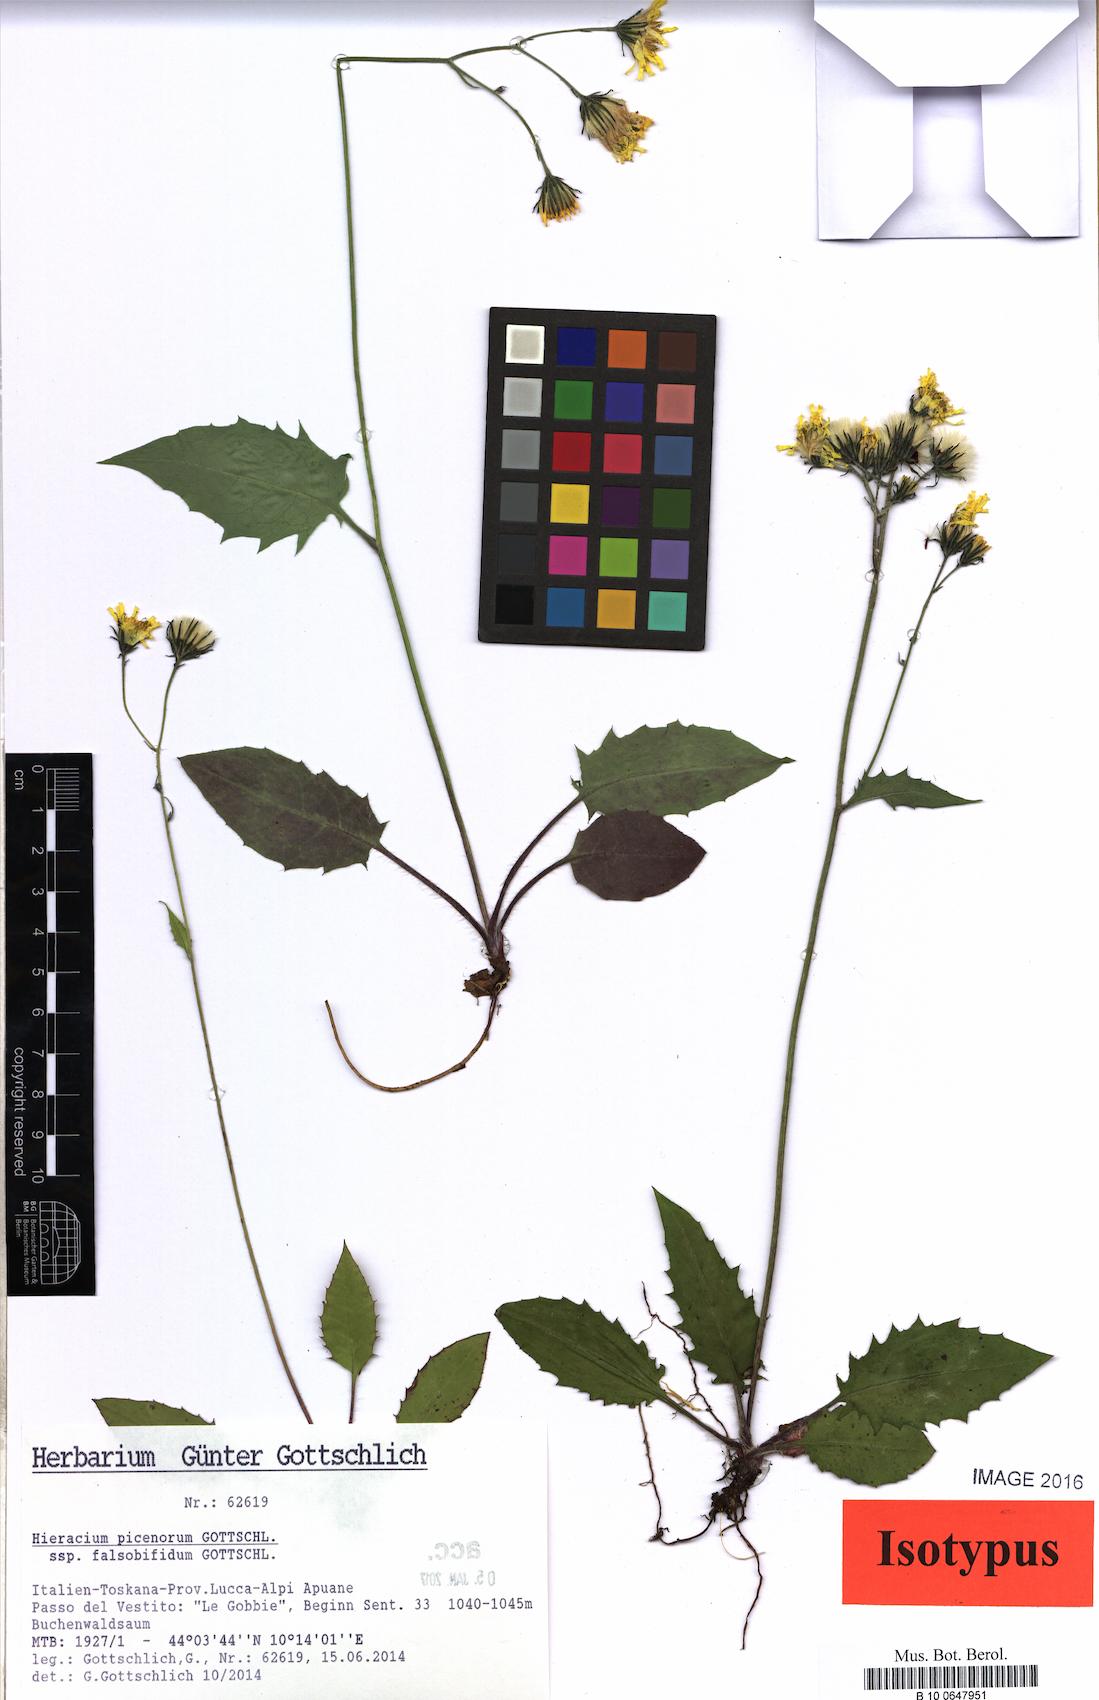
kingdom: Plantae
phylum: Tracheophyta
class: Magnoliopsida
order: Asterales
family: Asteraceae
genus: Hieracium
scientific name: Hieracium picenorum
